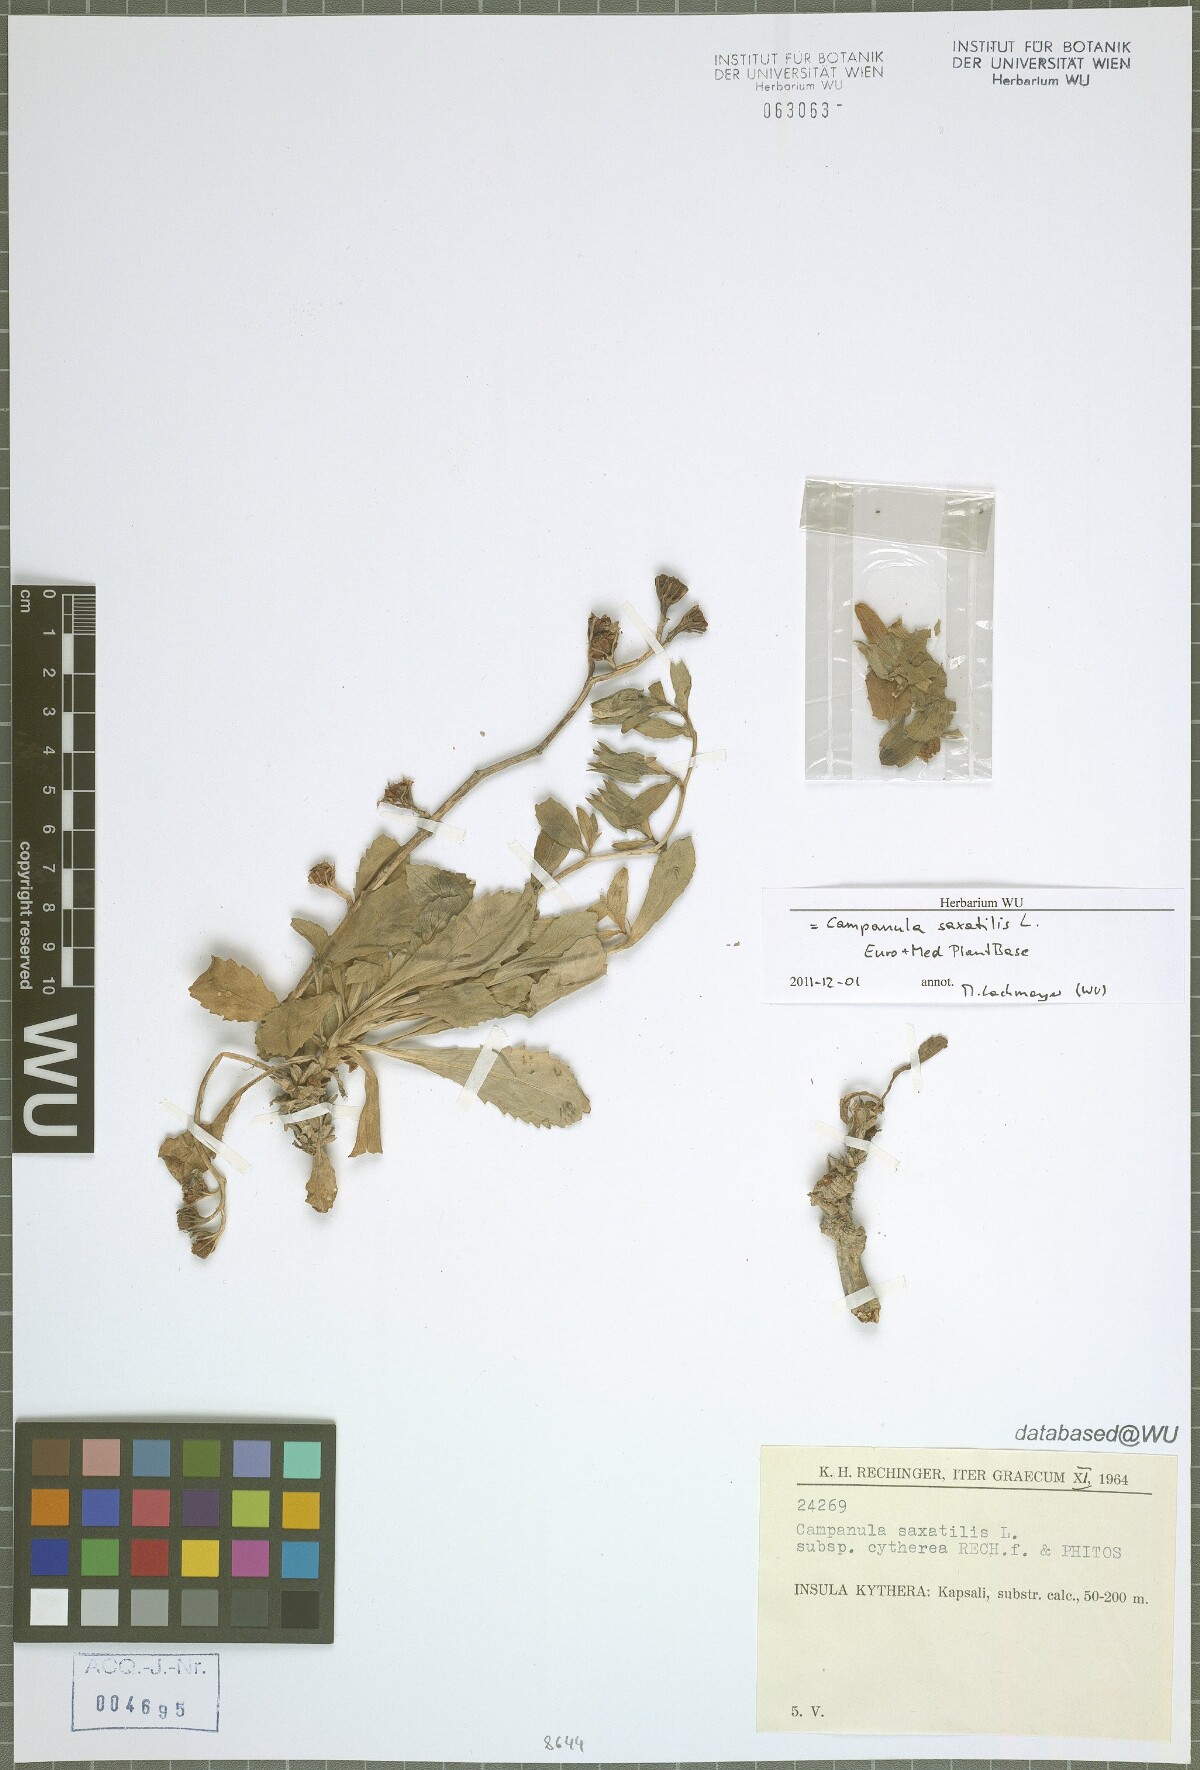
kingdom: Plantae
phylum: Tracheophyta
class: Magnoliopsida
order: Asterales
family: Campanulaceae
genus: Campanula
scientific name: Campanula saxatilis
